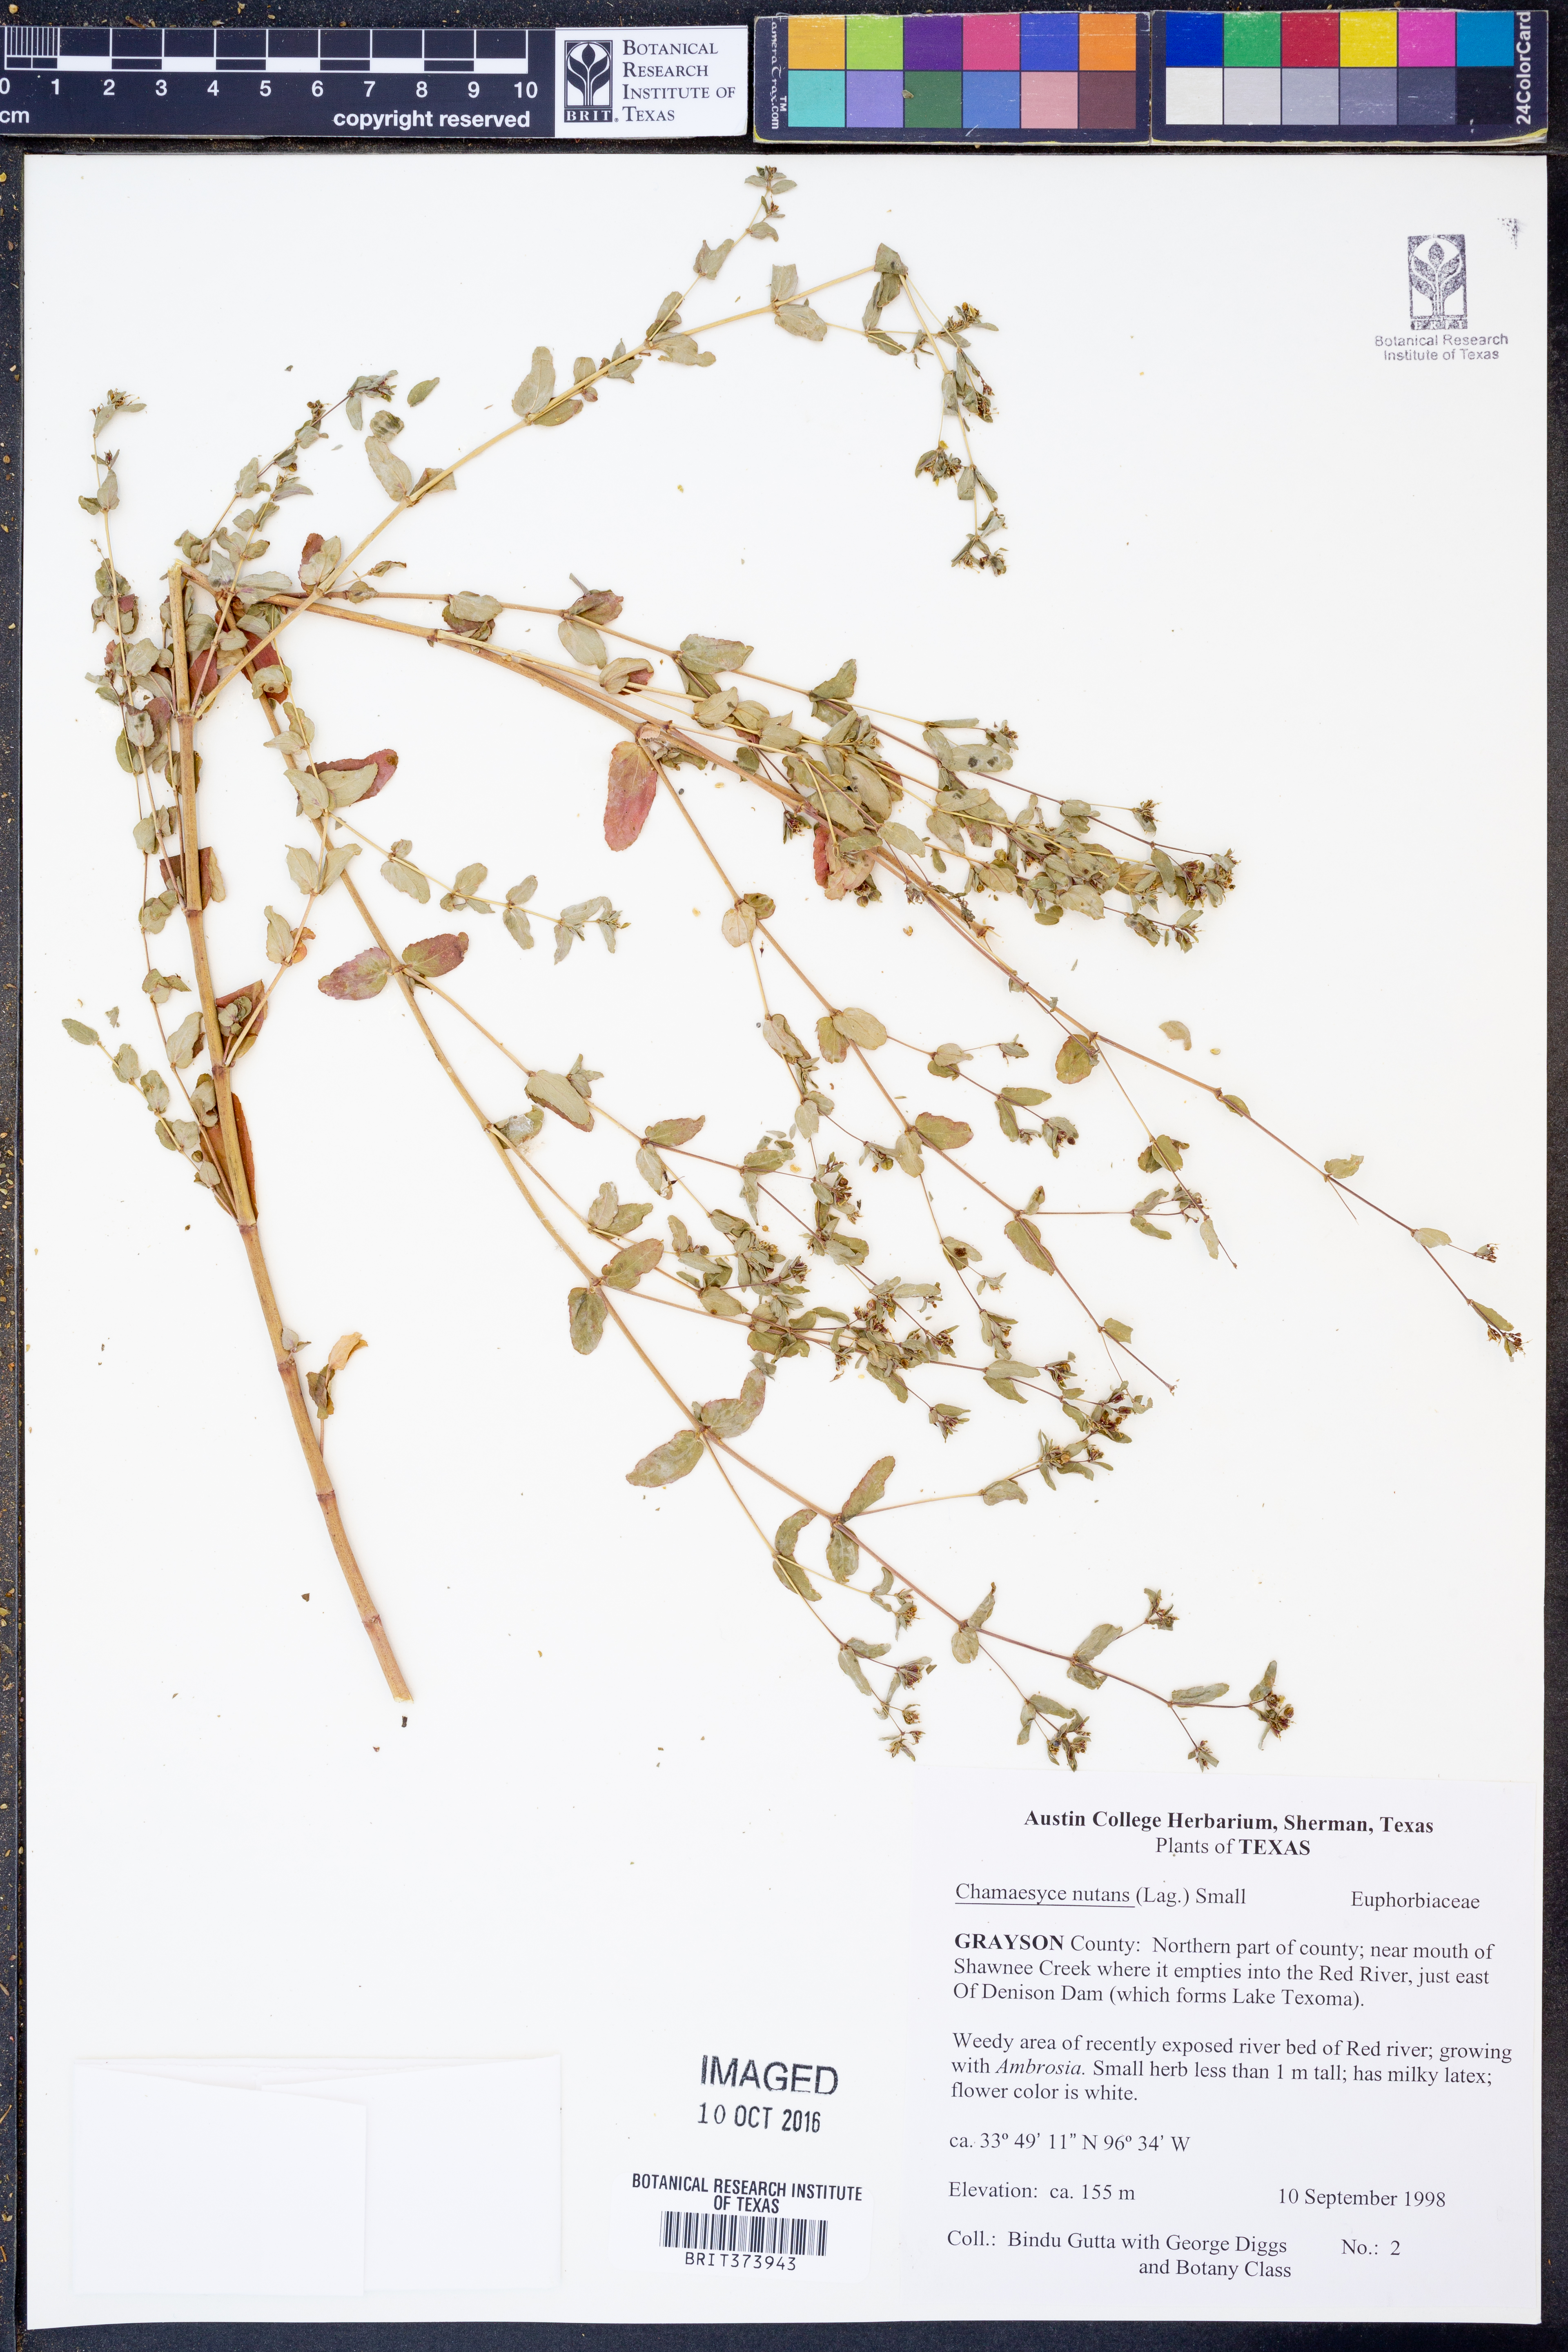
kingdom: Plantae
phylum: Tracheophyta
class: Magnoliopsida
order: Malpighiales
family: Euphorbiaceae
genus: Euphorbia
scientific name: Euphorbia nutans
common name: Eyebane
